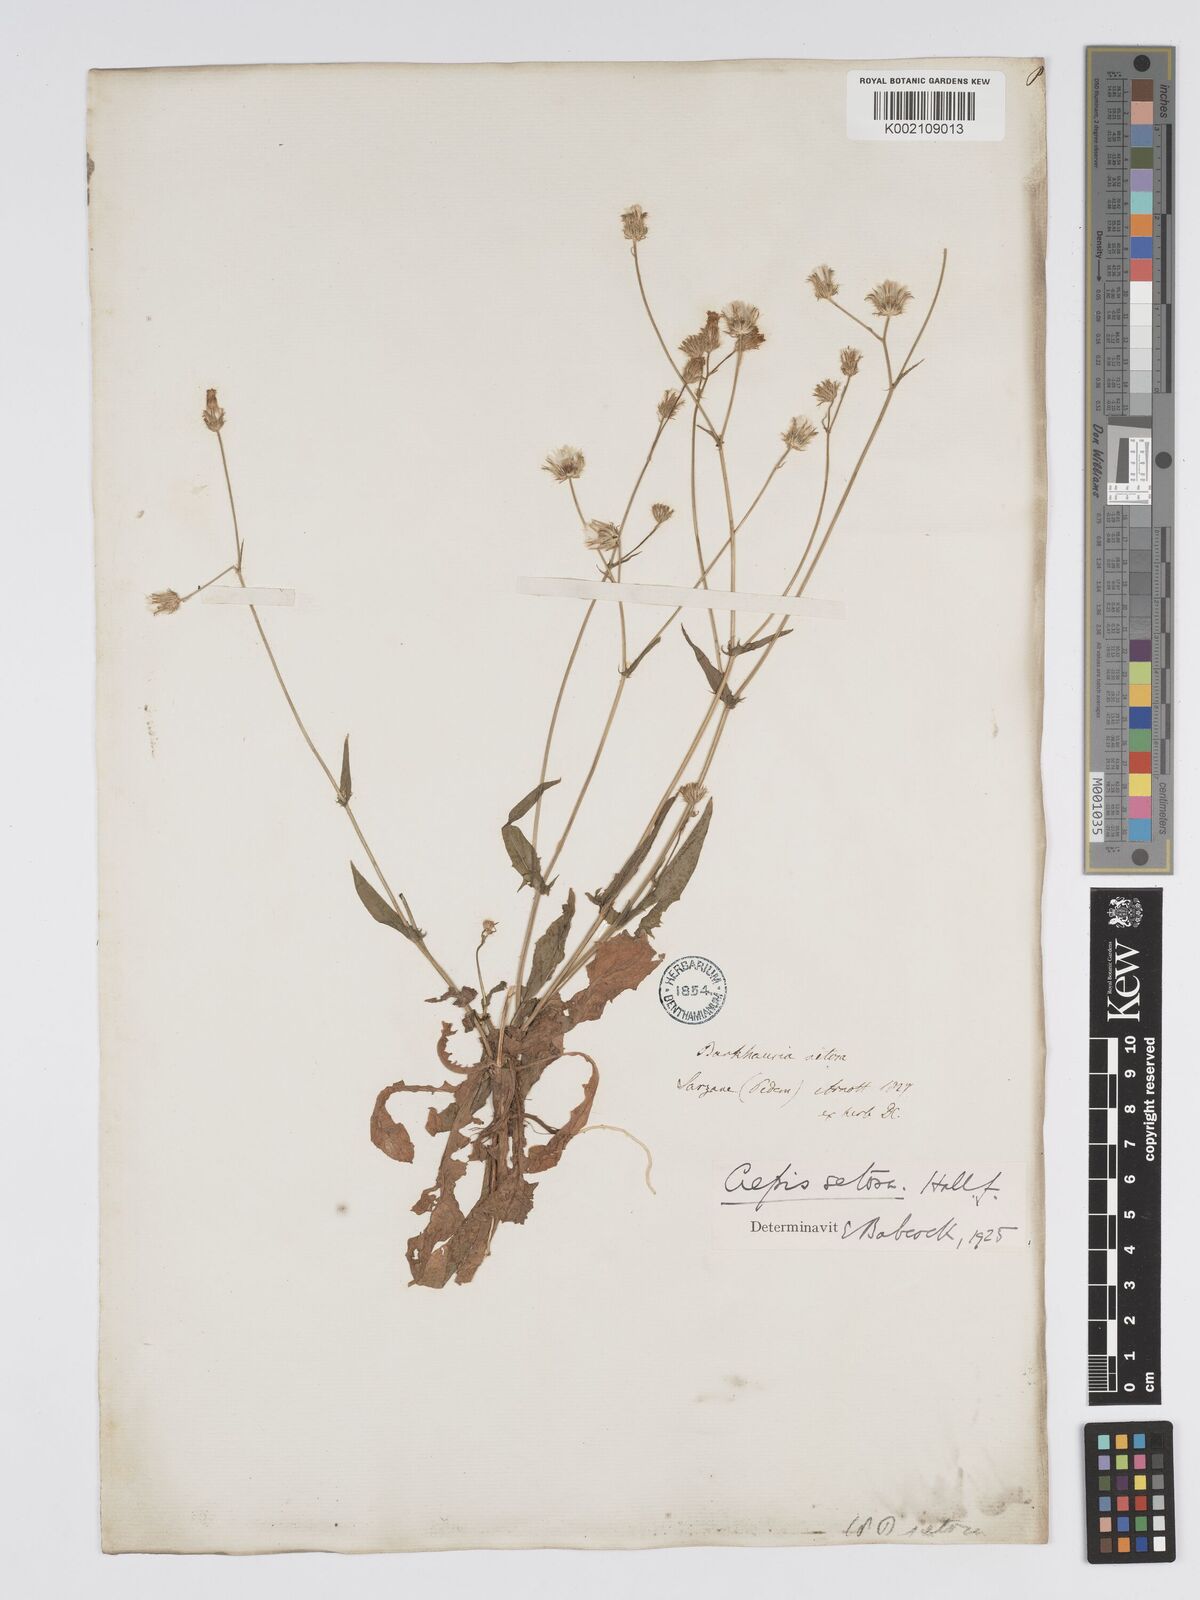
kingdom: Plantae
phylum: Tracheophyta
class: Magnoliopsida
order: Asterales
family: Asteraceae
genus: Crepis
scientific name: Crepis setosa
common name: Bristly hawk's-beard
